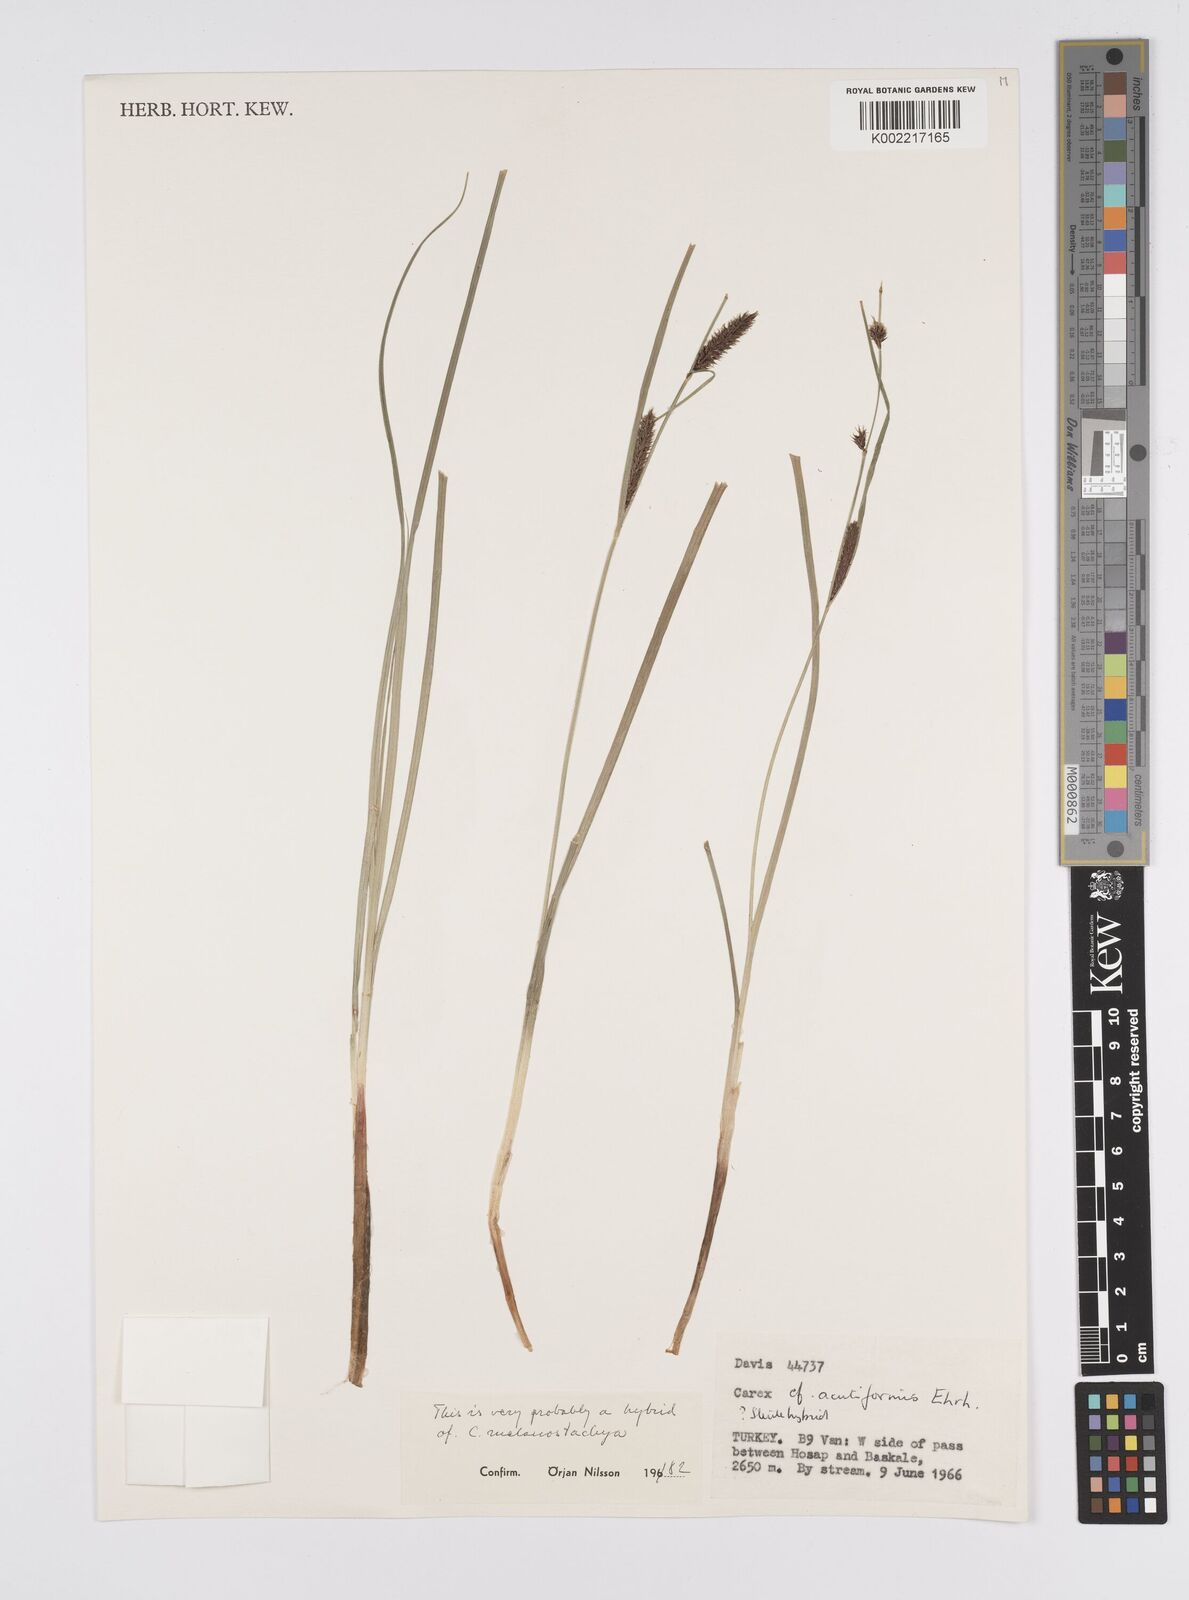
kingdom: Plantae
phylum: Tracheophyta
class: Liliopsida
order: Poales
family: Cyperaceae
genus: Carex
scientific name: Carex acutiformis
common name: Lesser pond-sedge
